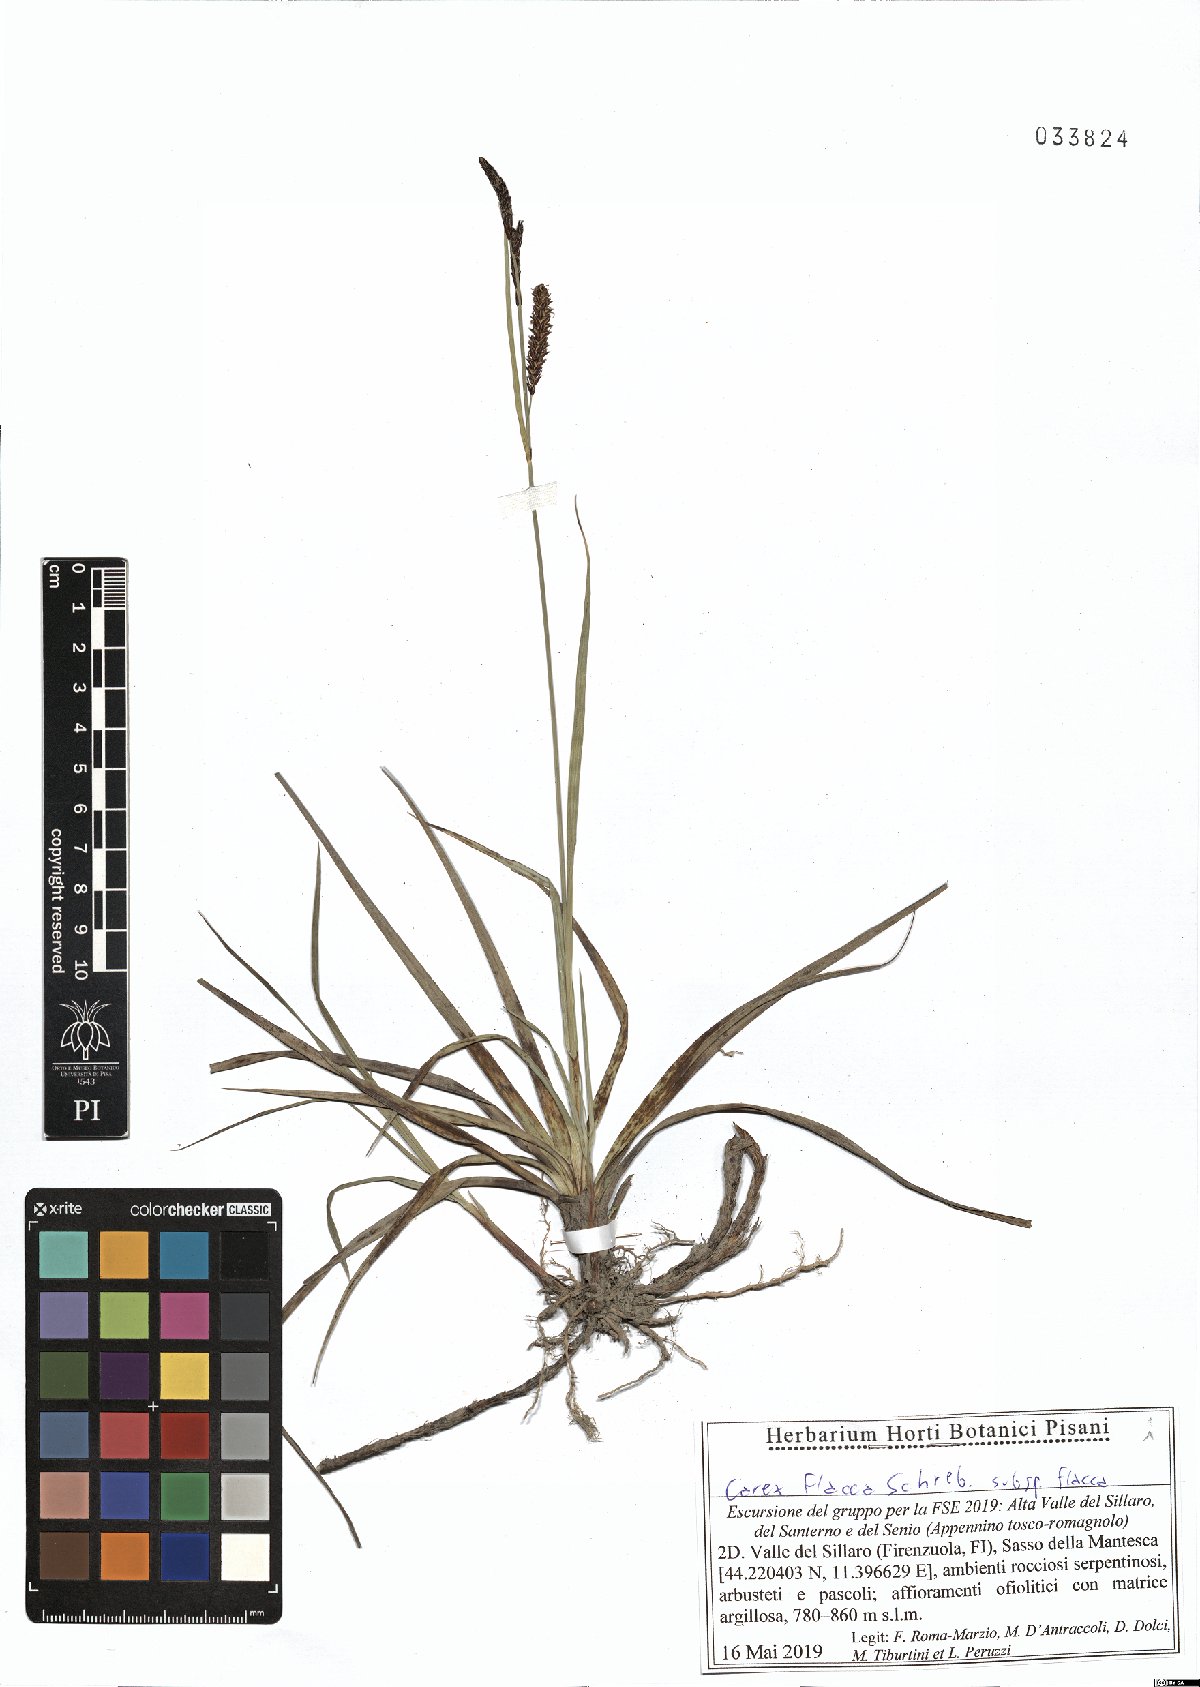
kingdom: Plantae
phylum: Tracheophyta
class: Liliopsida
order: Poales
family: Cyperaceae
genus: Carex
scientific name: Carex flacca
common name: Glaucous sedge
